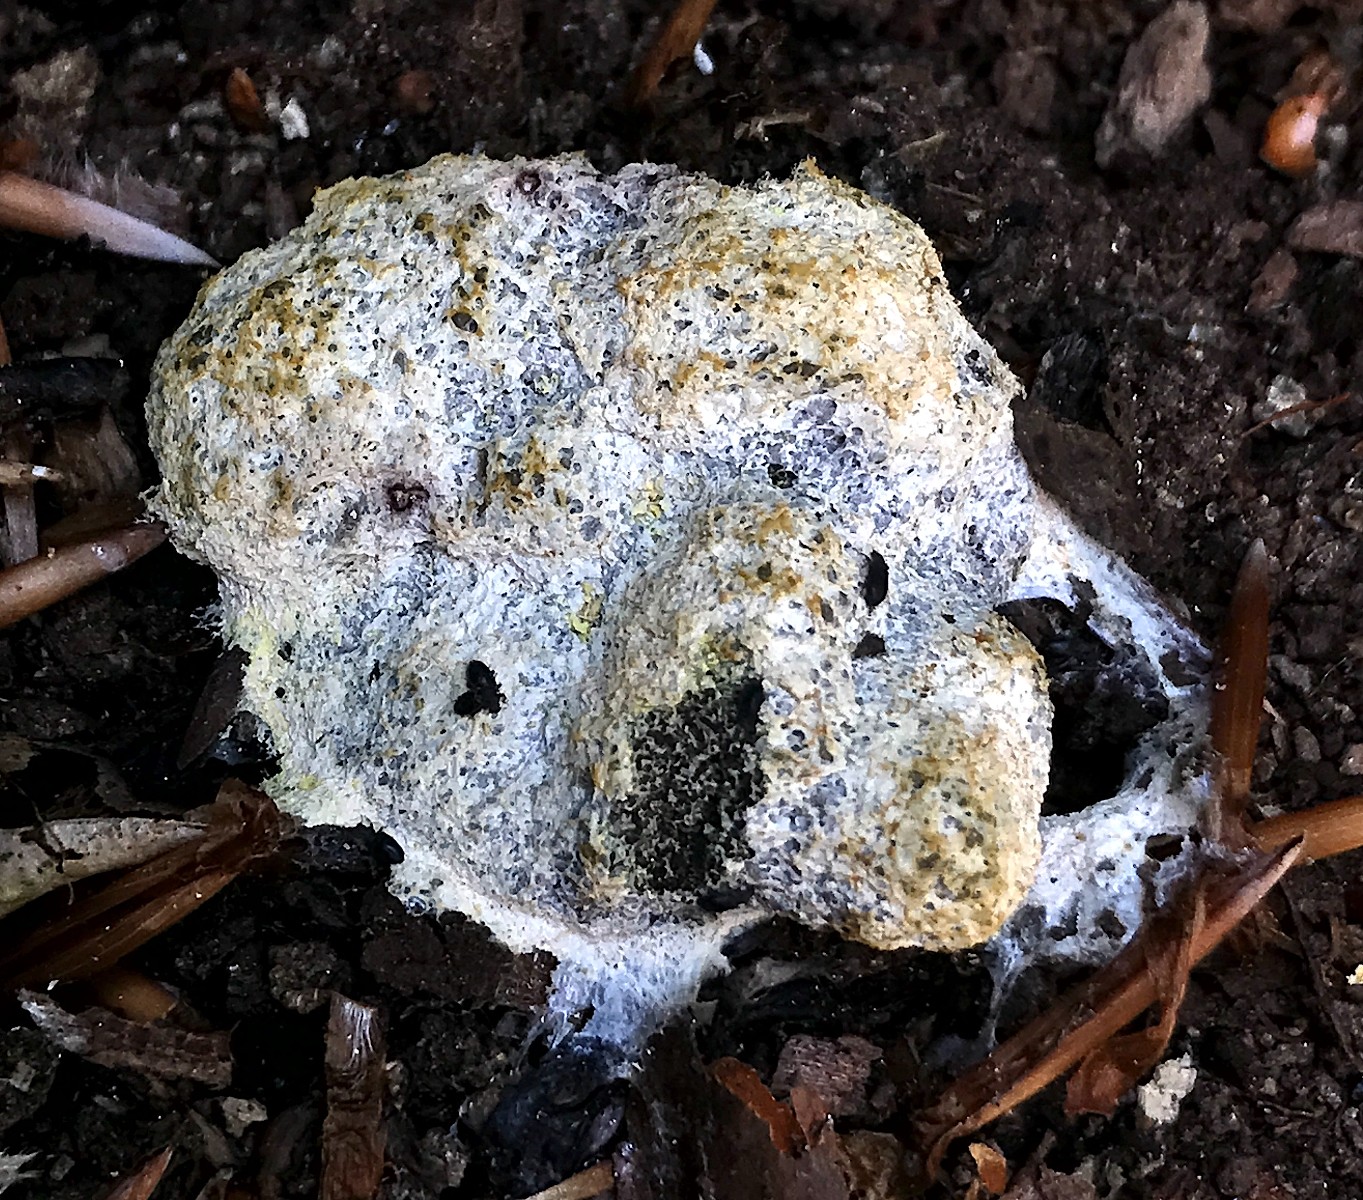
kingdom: Protozoa
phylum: Mycetozoa
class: Myxomycetes
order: Physarales
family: Physaraceae
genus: Fuligo
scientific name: Fuligo septica
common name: gul troldsmør
